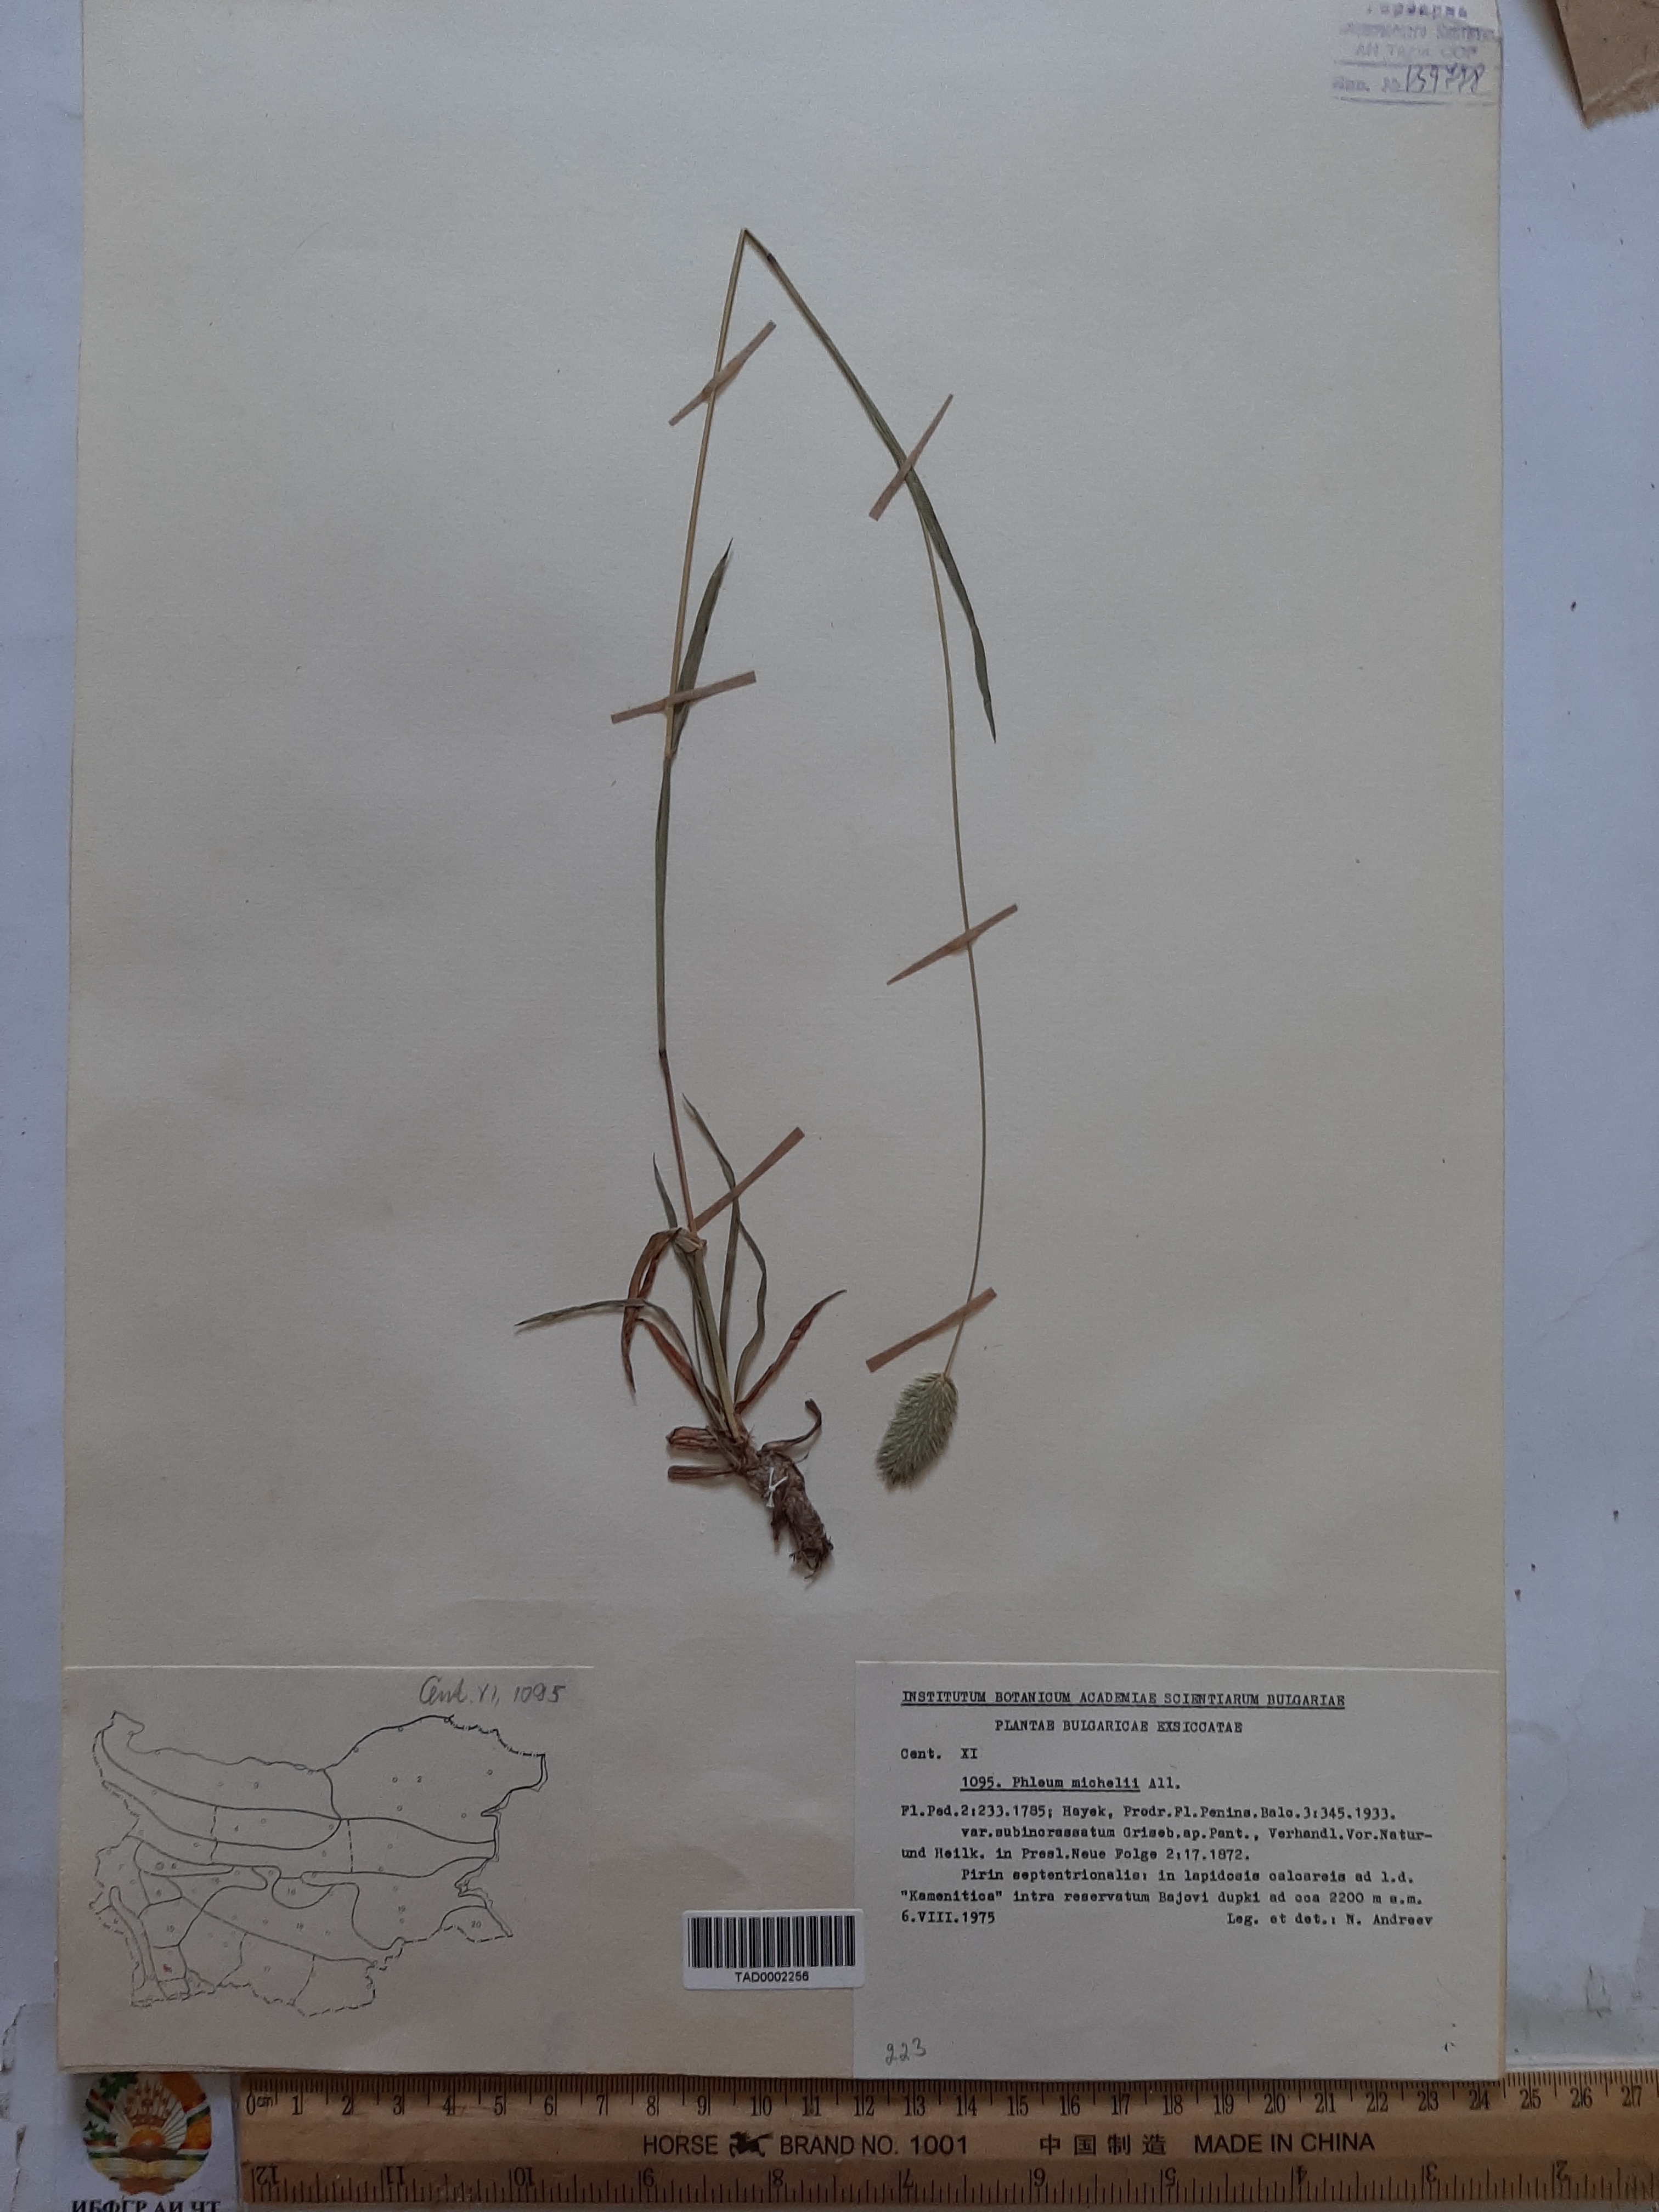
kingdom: Plantae
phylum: Tracheophyta
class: Liliopsida
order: Poales
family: Poaceae
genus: Phleum
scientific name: Phleum hirsutum
